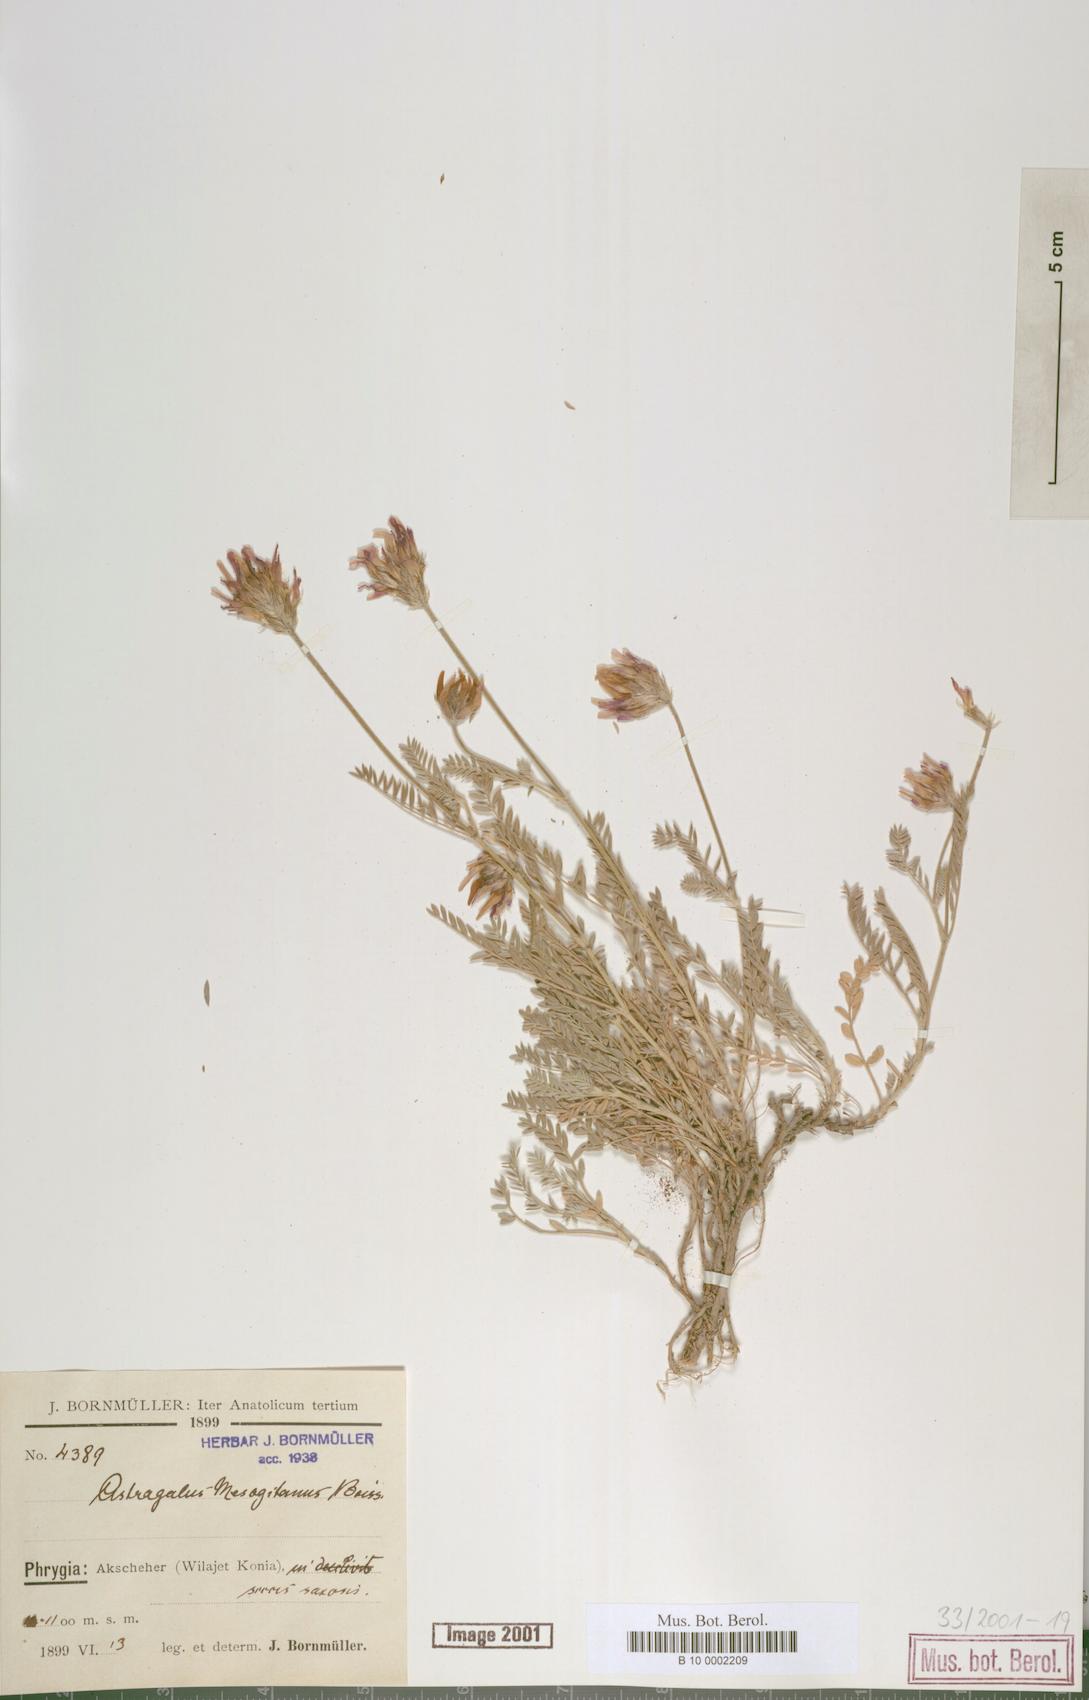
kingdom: Plantae
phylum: Tracheophyta
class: Magnoliopsida
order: Fabales
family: Fabaceae
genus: Astragalus
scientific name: Astragalus mesogitanus
